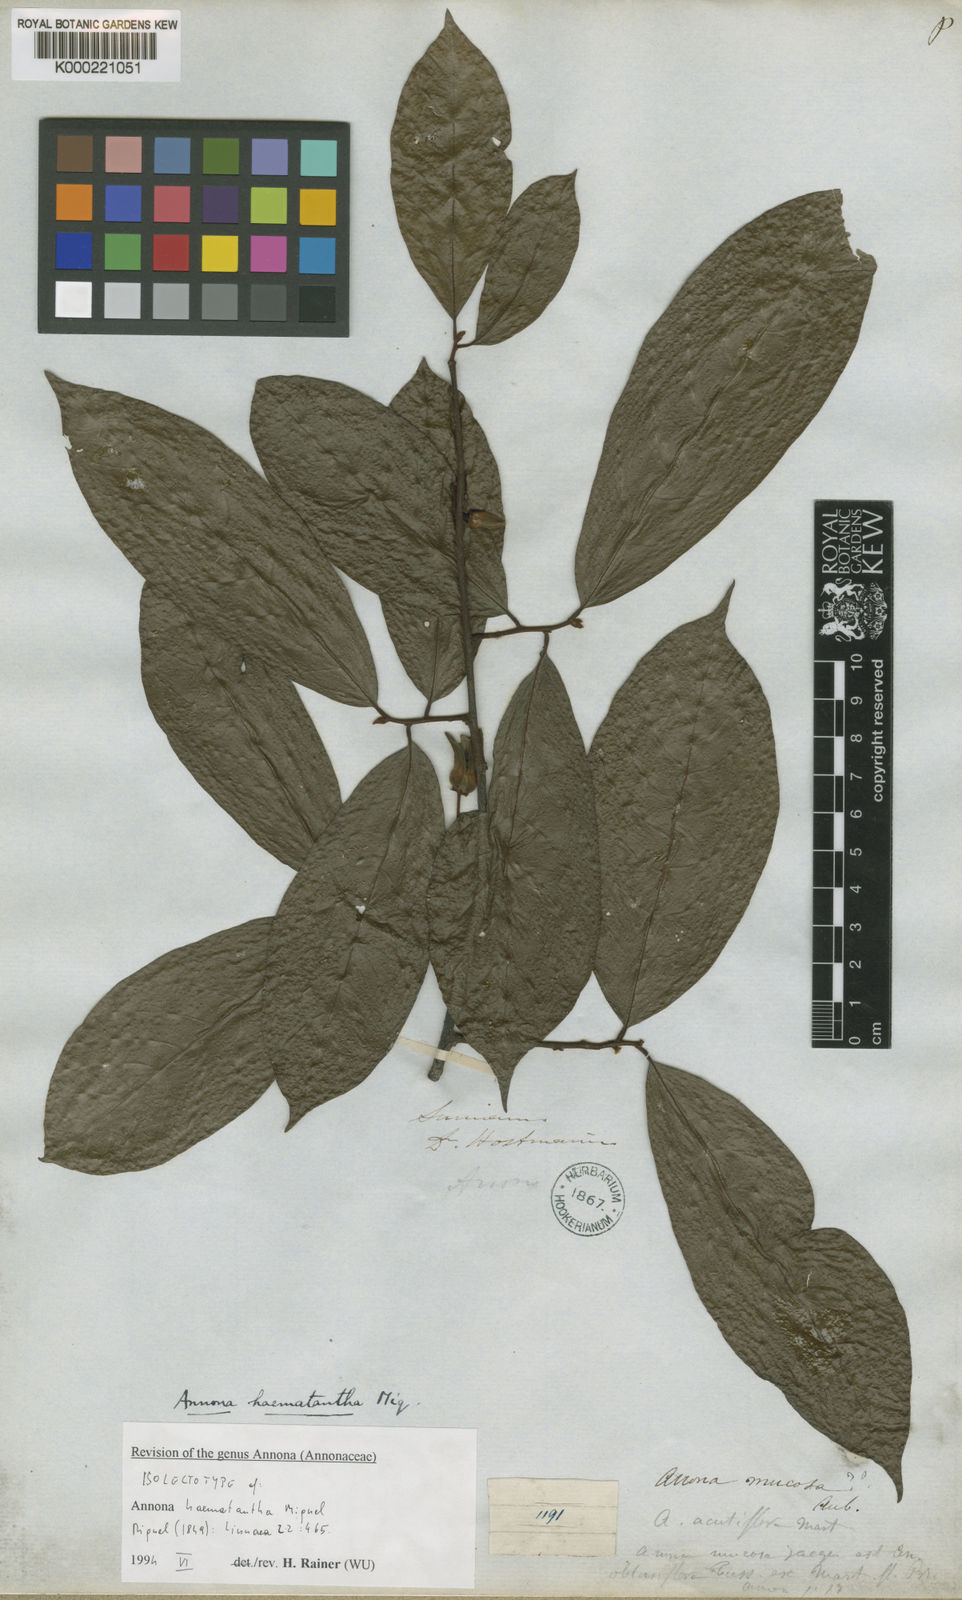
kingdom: Plantae
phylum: Tracheophyta
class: Magnoliopsida
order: Magnoliales
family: Annonaceae
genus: Annona
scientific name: Annona haematantha
